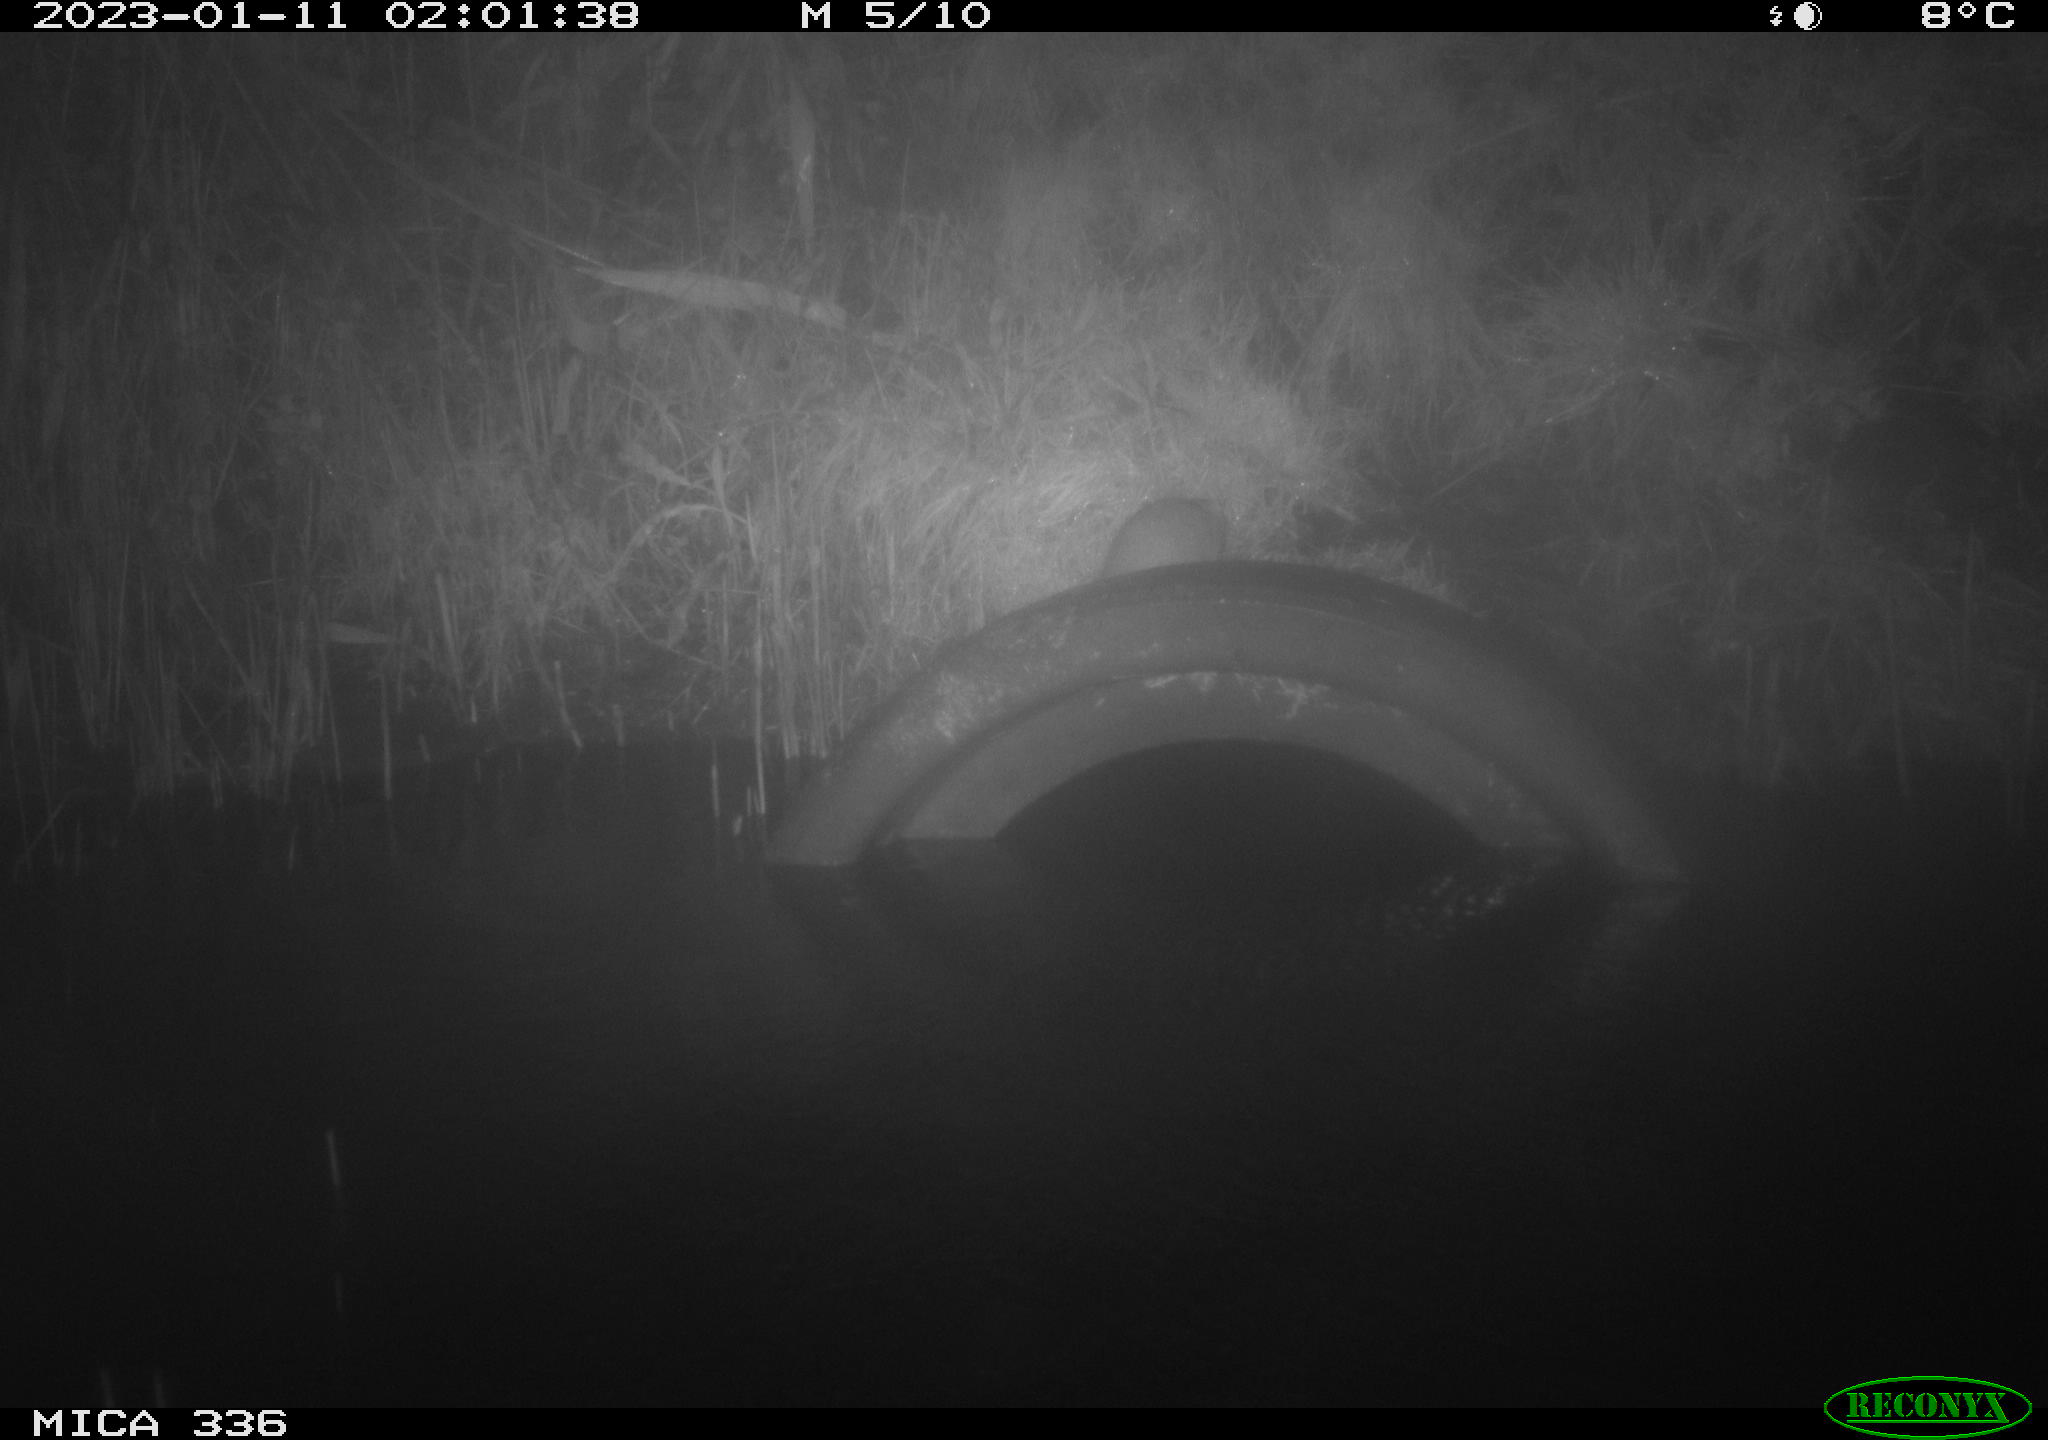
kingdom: Animalia
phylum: Chordata
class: Mammalia
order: Rodentia
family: Muridae
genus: Rattus
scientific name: Rattus norvegicus
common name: Brown rat
